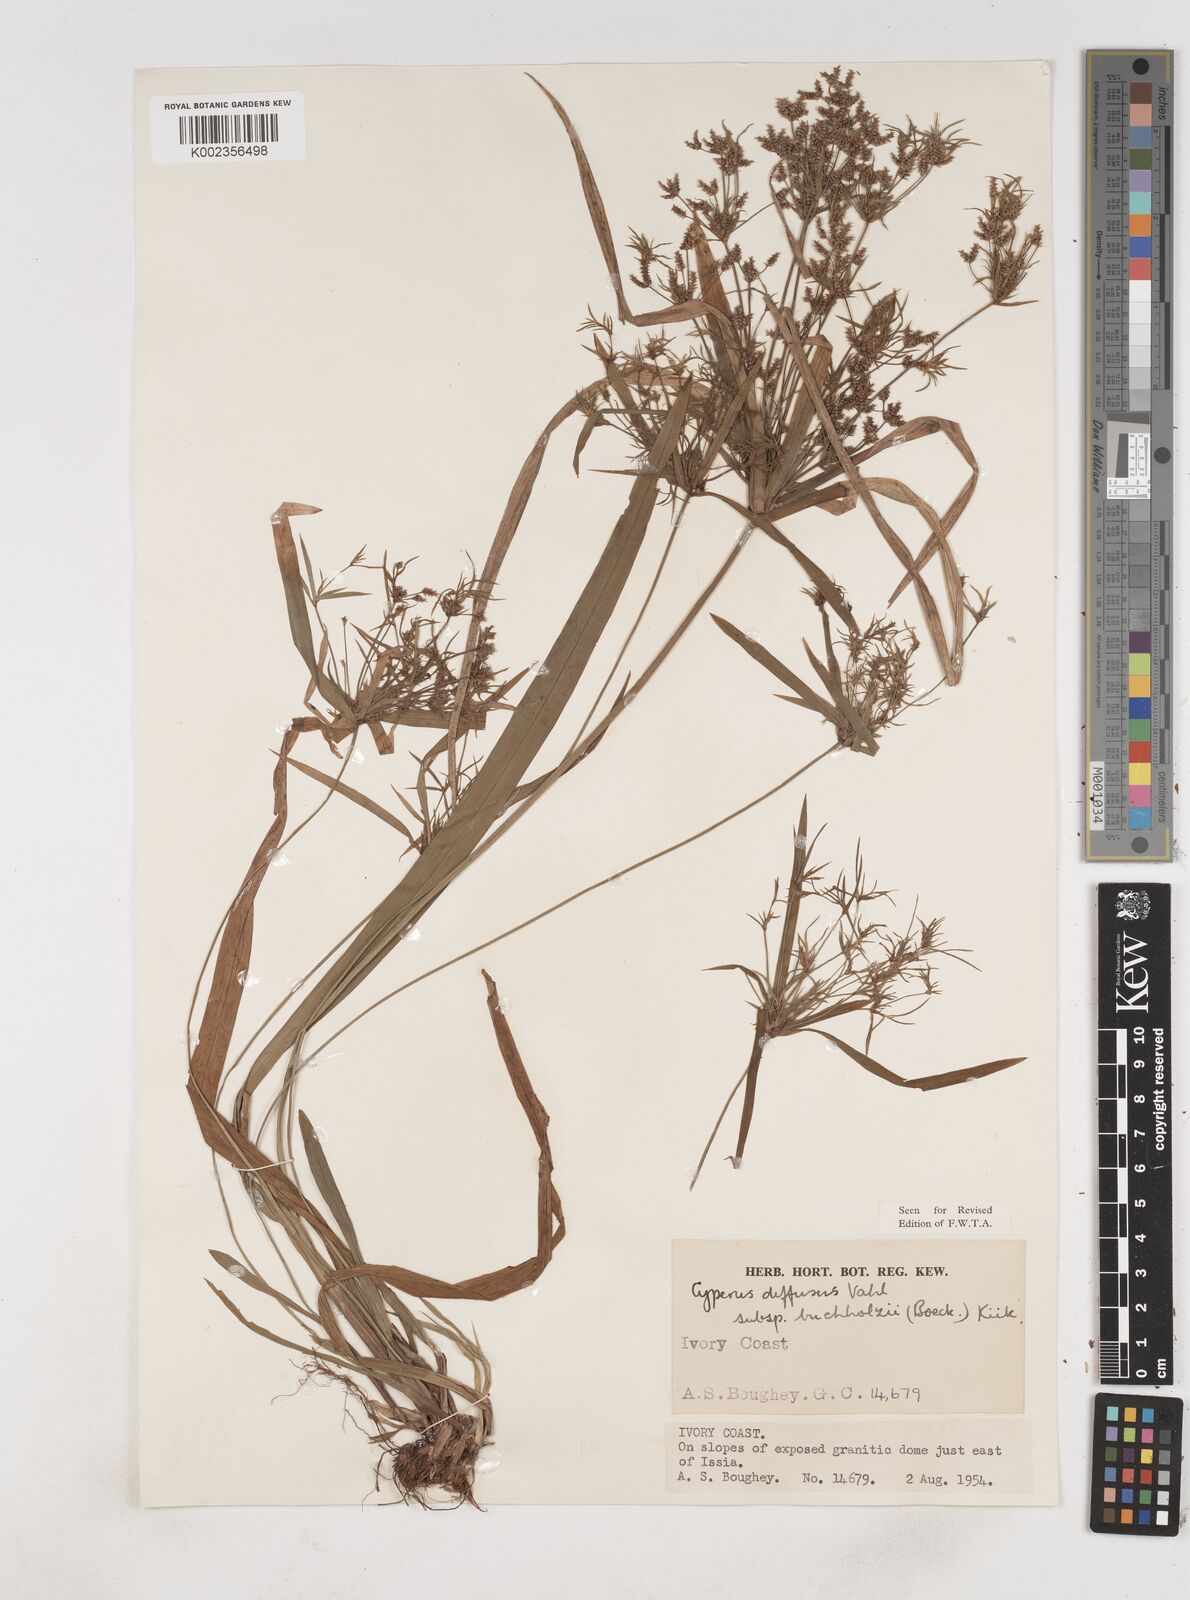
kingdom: Plantae
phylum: Tracheophyta
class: Liliopsida
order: Poales
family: Cyperaceae
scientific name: Cyperaceae
